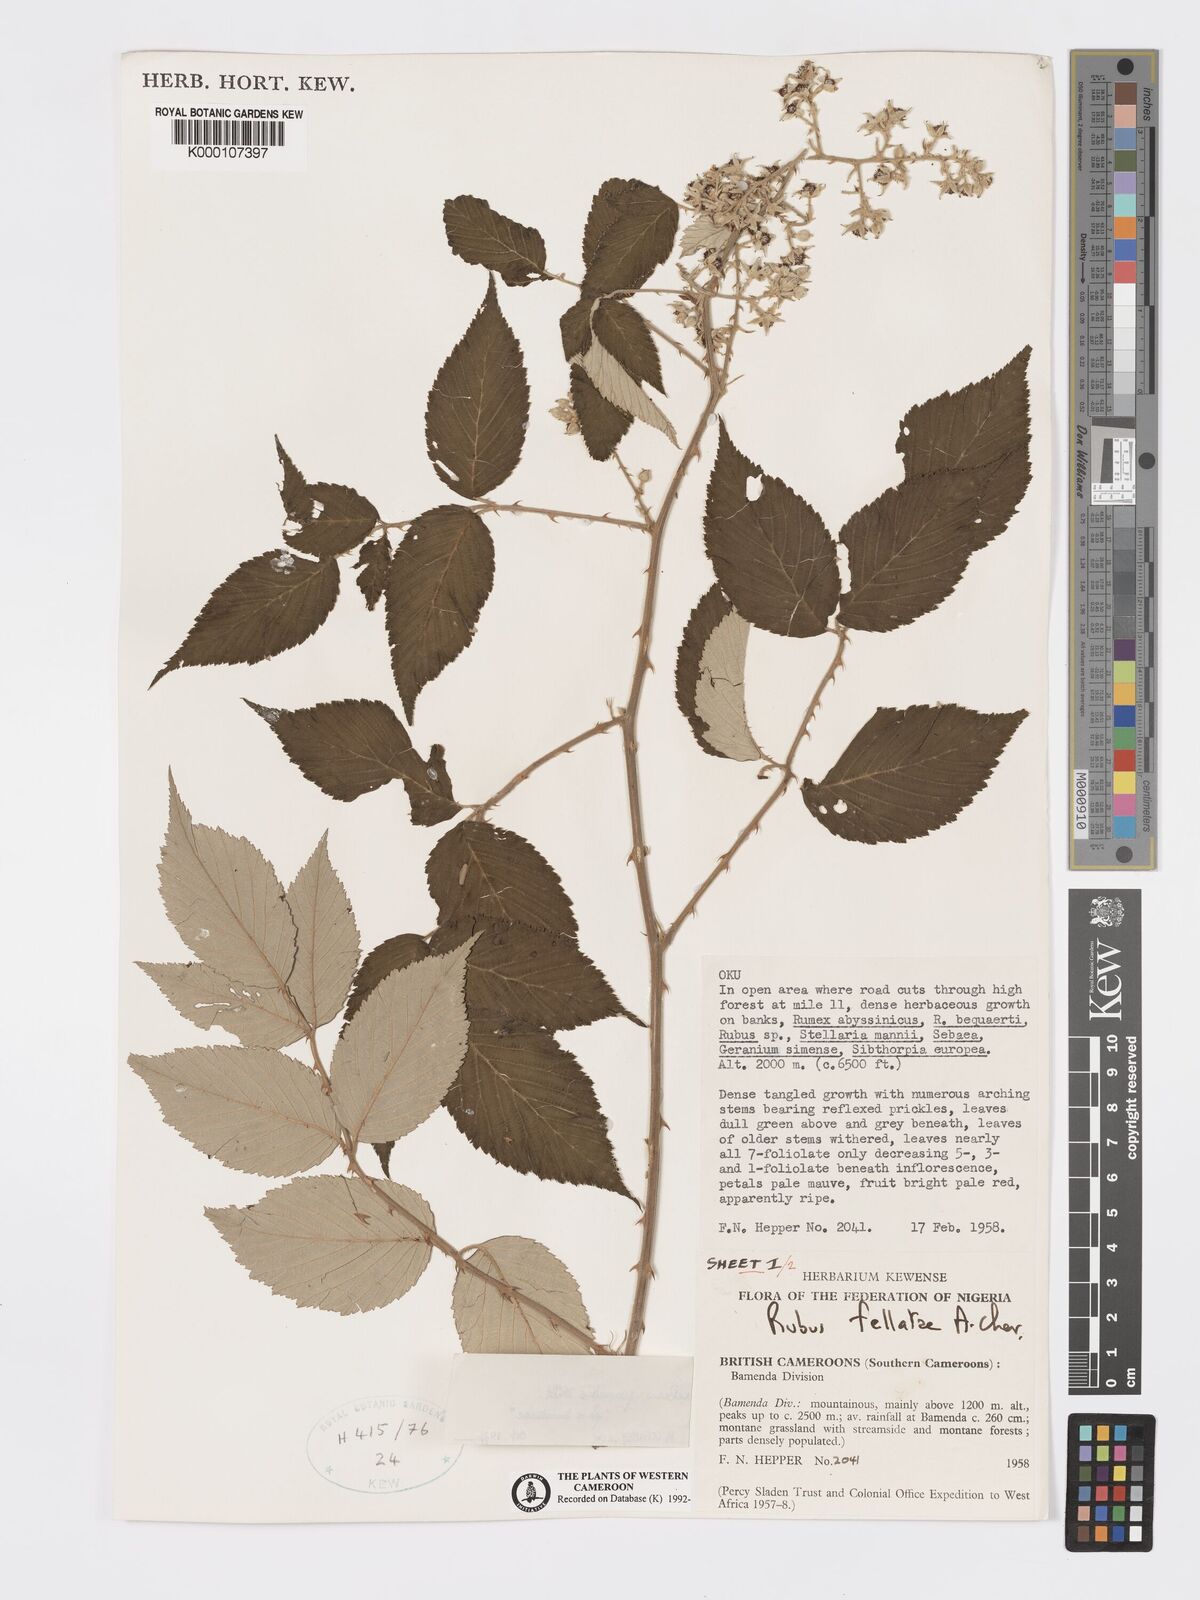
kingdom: Plantae
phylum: Tracheophyta
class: Magnoliopsida
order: Rosales
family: Rosaceae
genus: Rubus
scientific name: Rubus pinnatus
